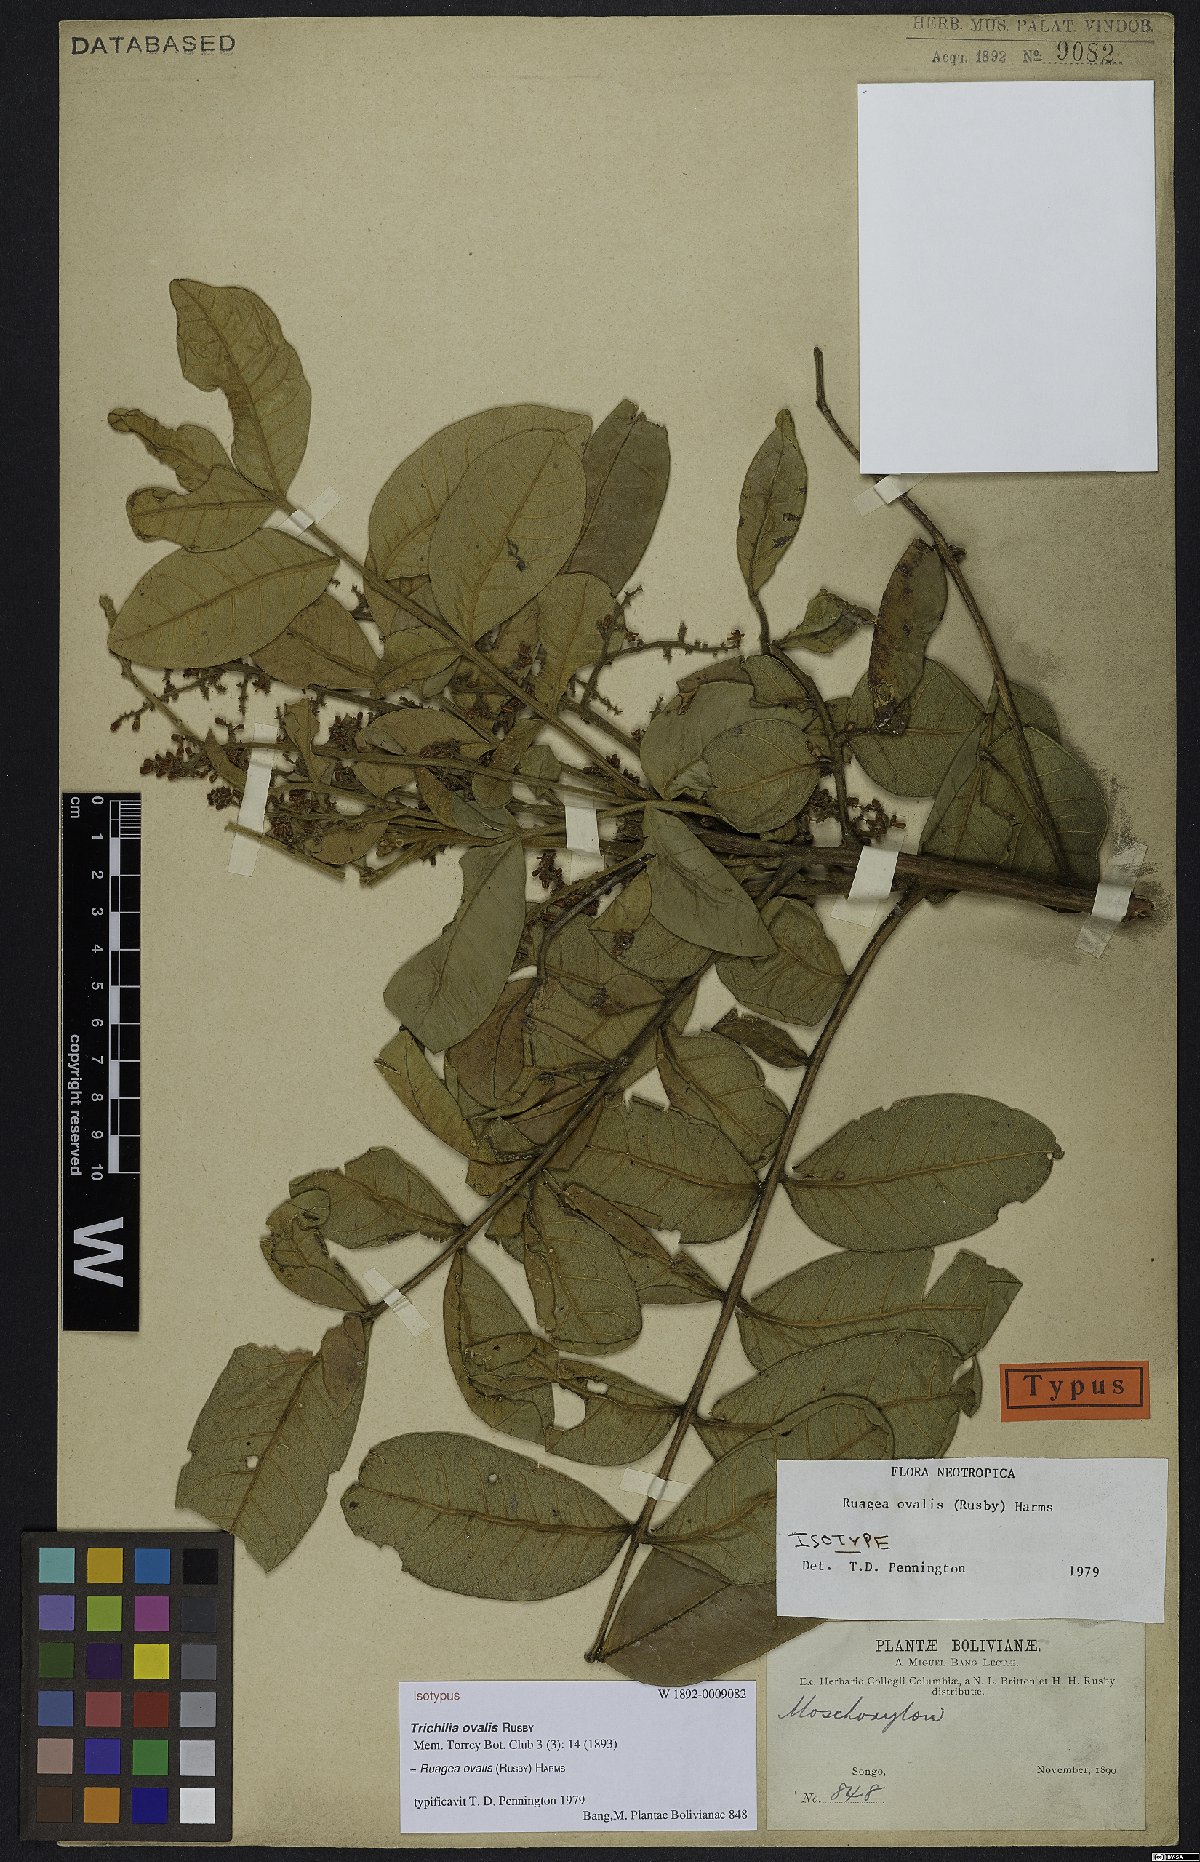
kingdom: Plantae
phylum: Tracheophyta
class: Magnoliopsida
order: Sapindales
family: Meliaceae
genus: Ruagea
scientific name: Ruagea ovalis
